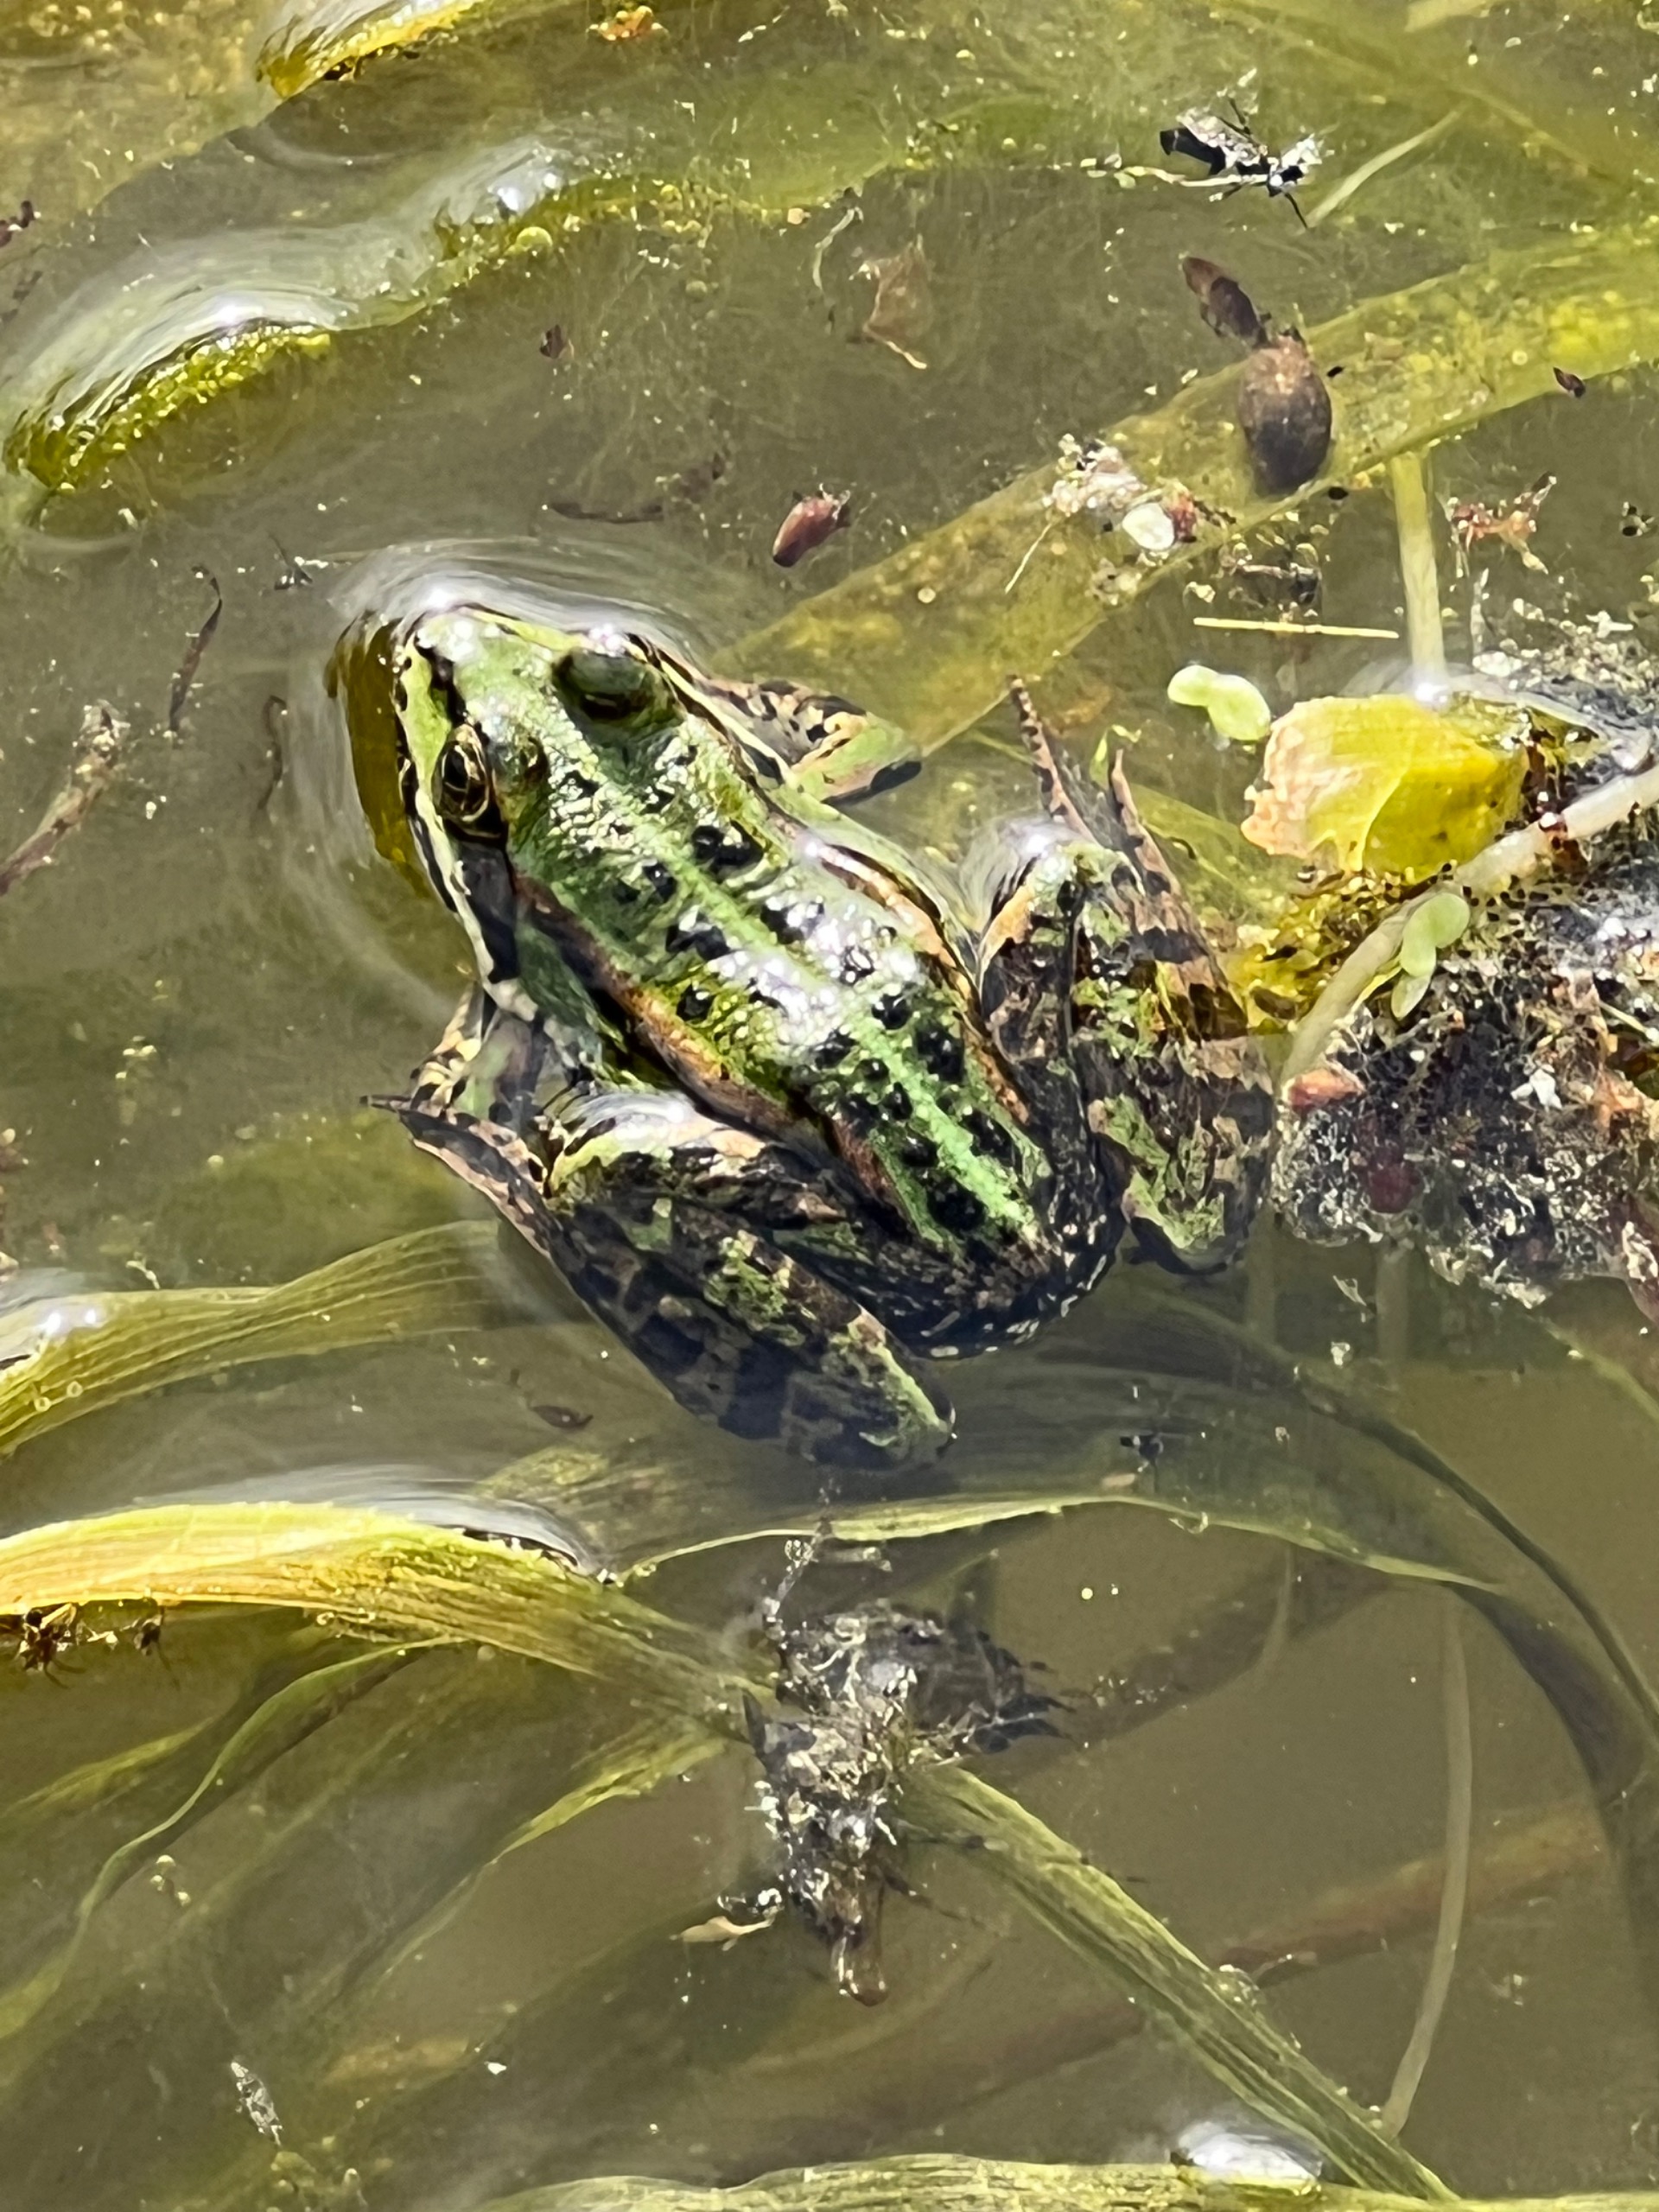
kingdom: Animalia
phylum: Chordata
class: Amphibia
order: Anura
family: Ranidae
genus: Pelophylax
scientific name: Pelophylax lessonae
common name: Grøn frø
